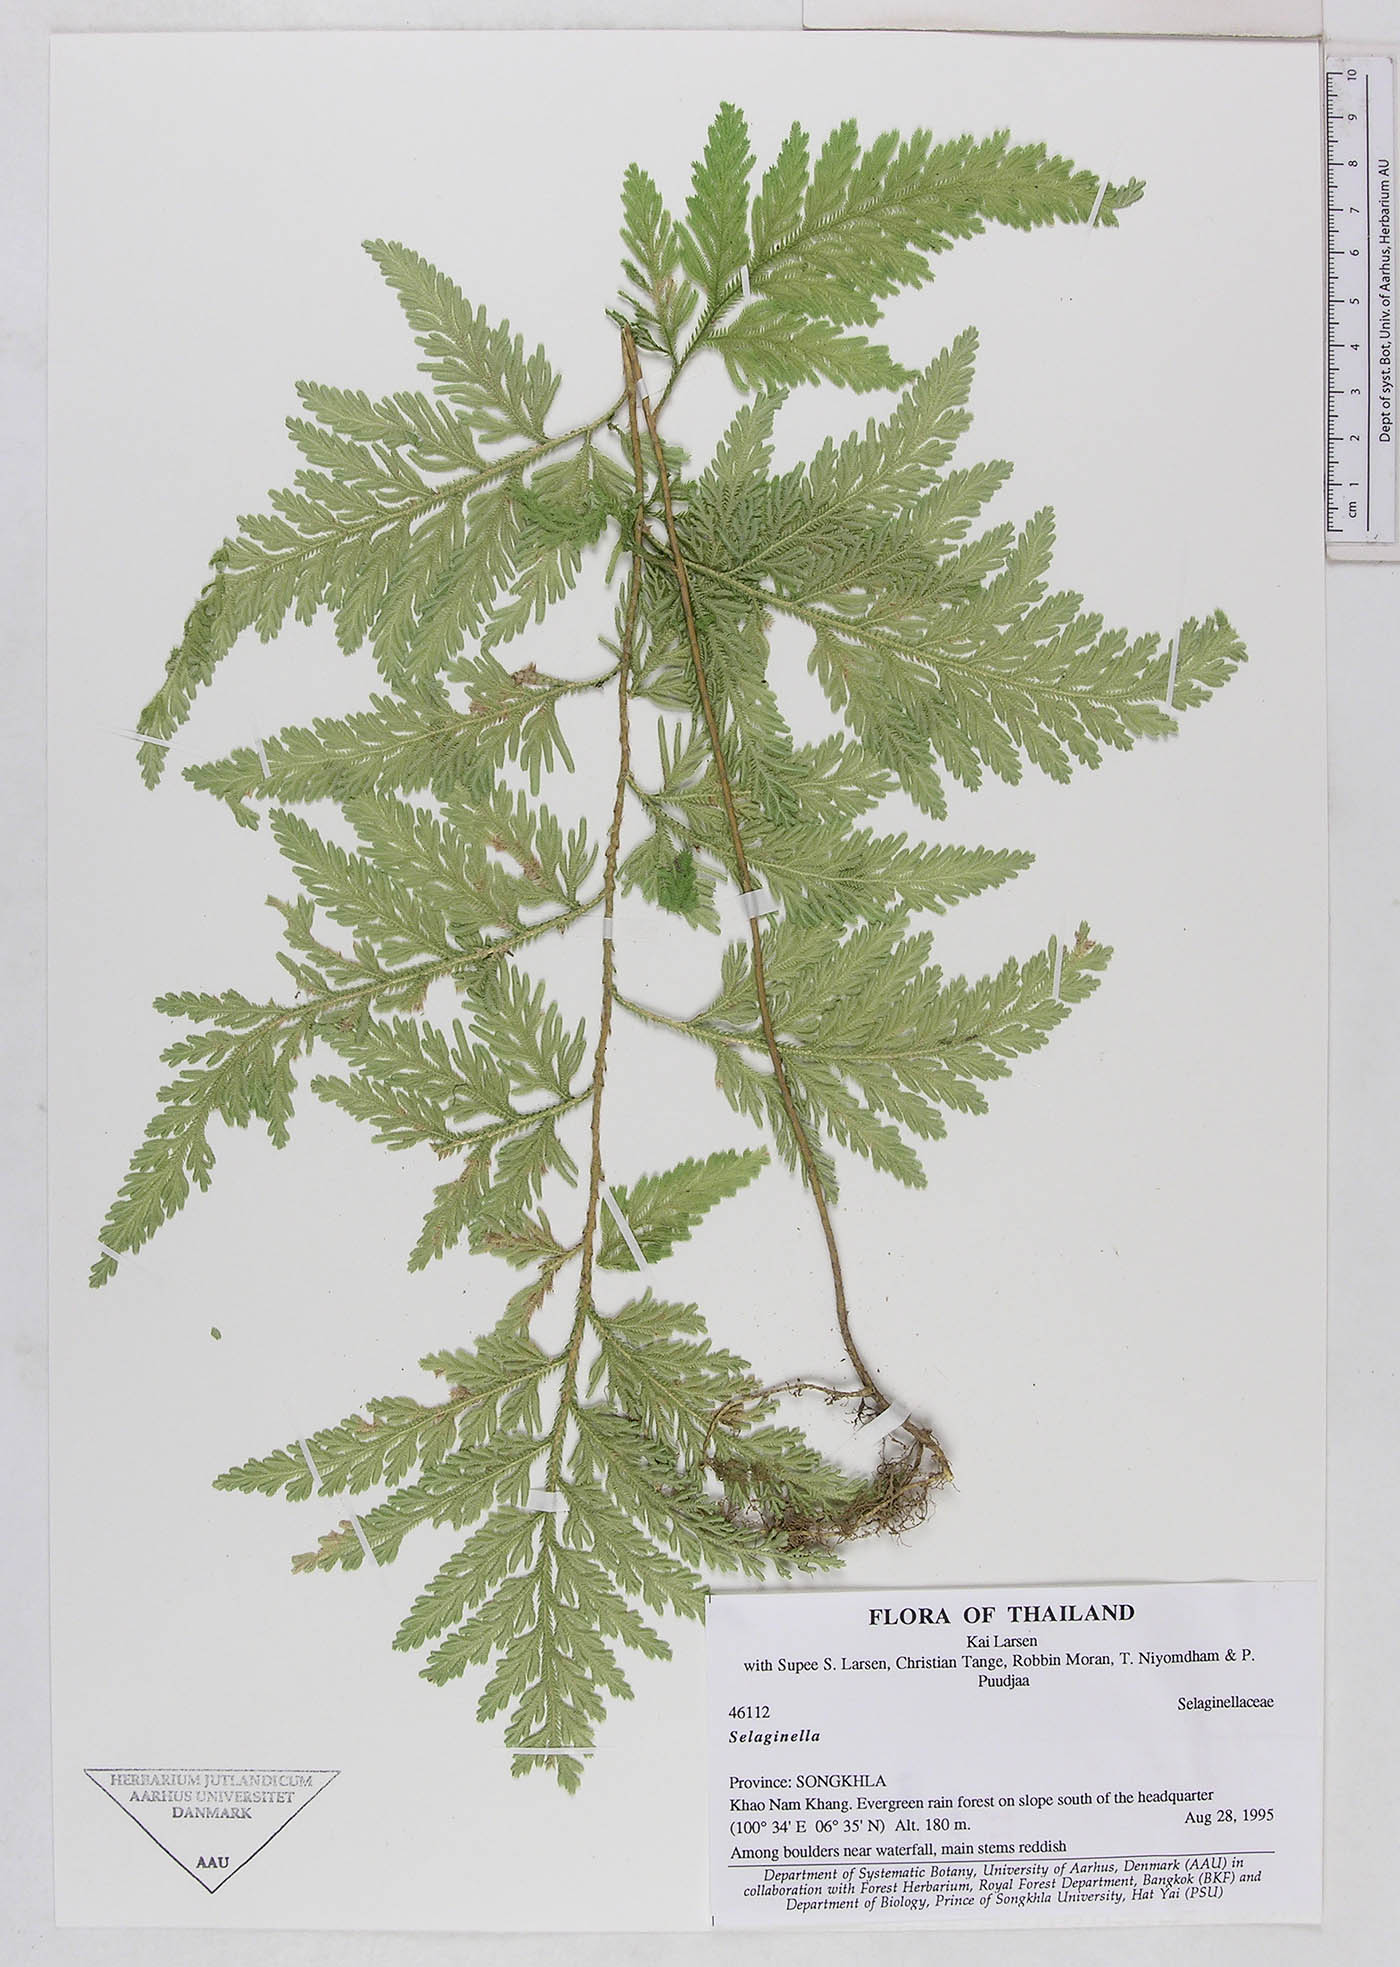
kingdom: Plantae
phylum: Tracheophyta
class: Lycopodiopsida
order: Selaginellales
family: Selaginellaceae
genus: Selaginella
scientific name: Selaginella
